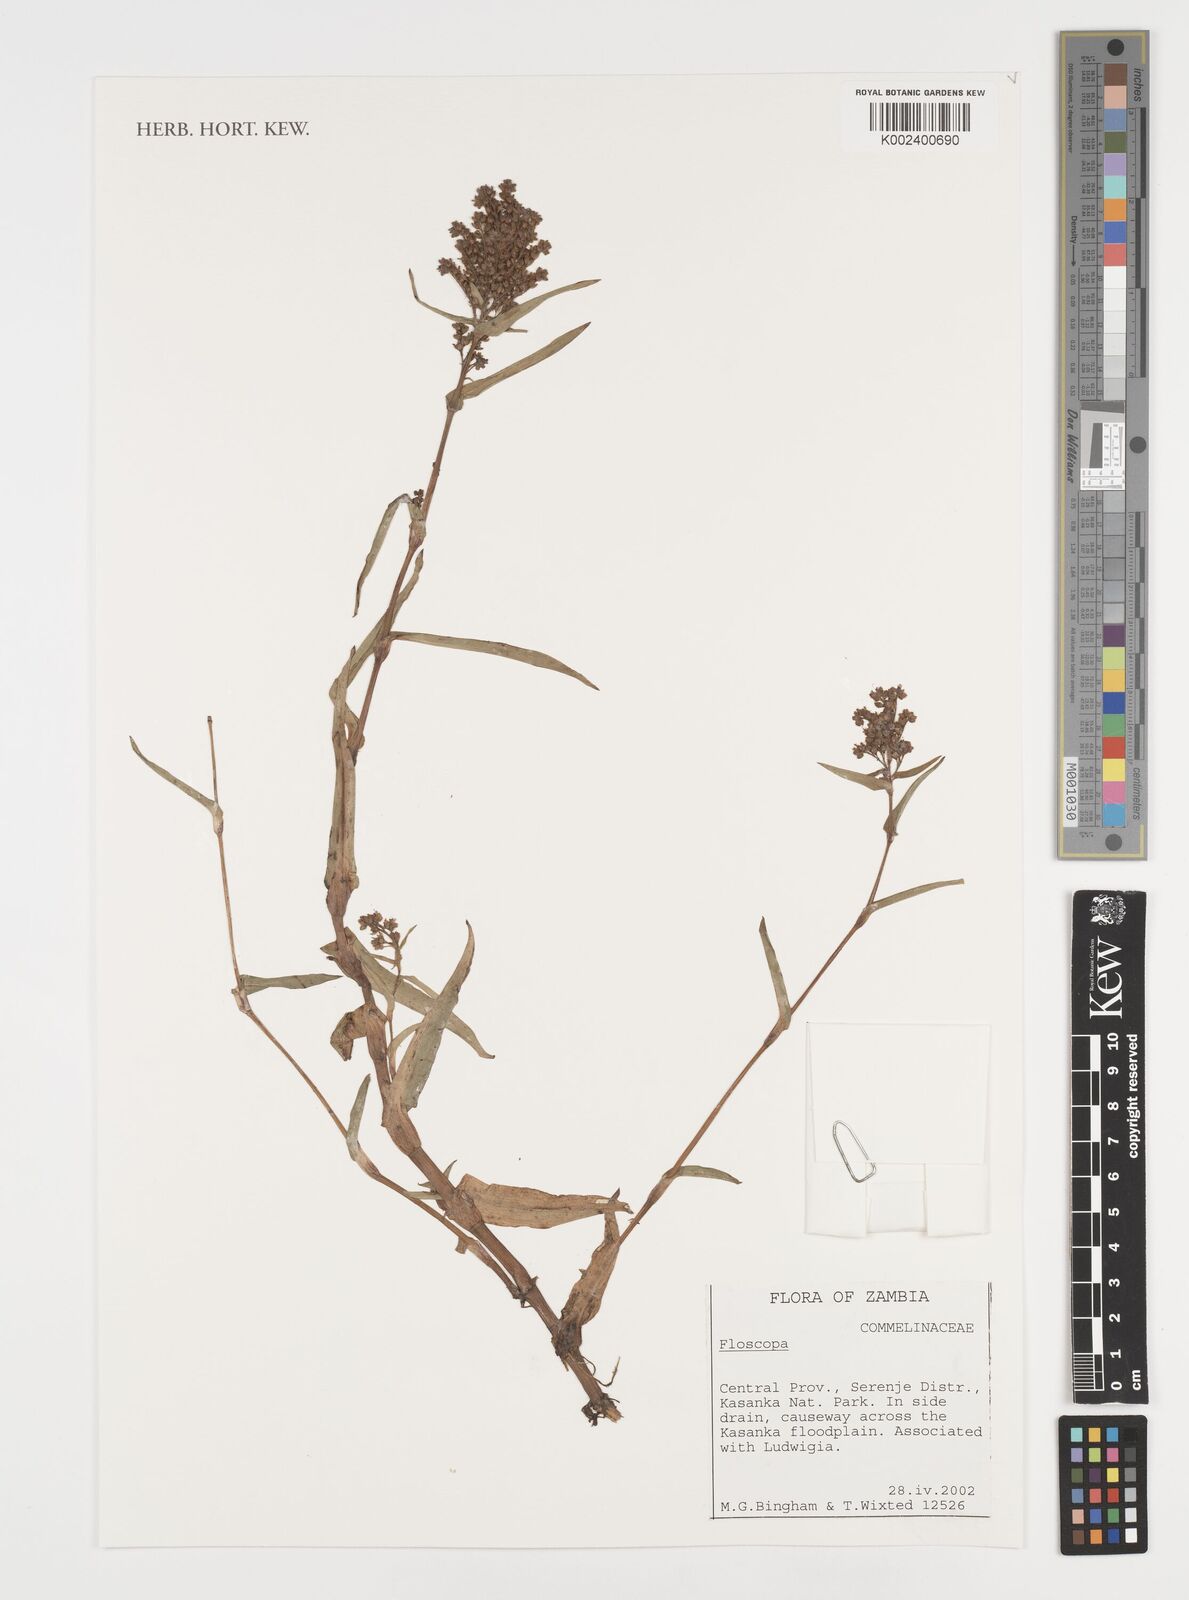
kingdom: Plantae
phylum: Tracheophyta
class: Liliopsida
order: Commelinales
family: Commelinaceae
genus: Floscopa
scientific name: Floscopa
